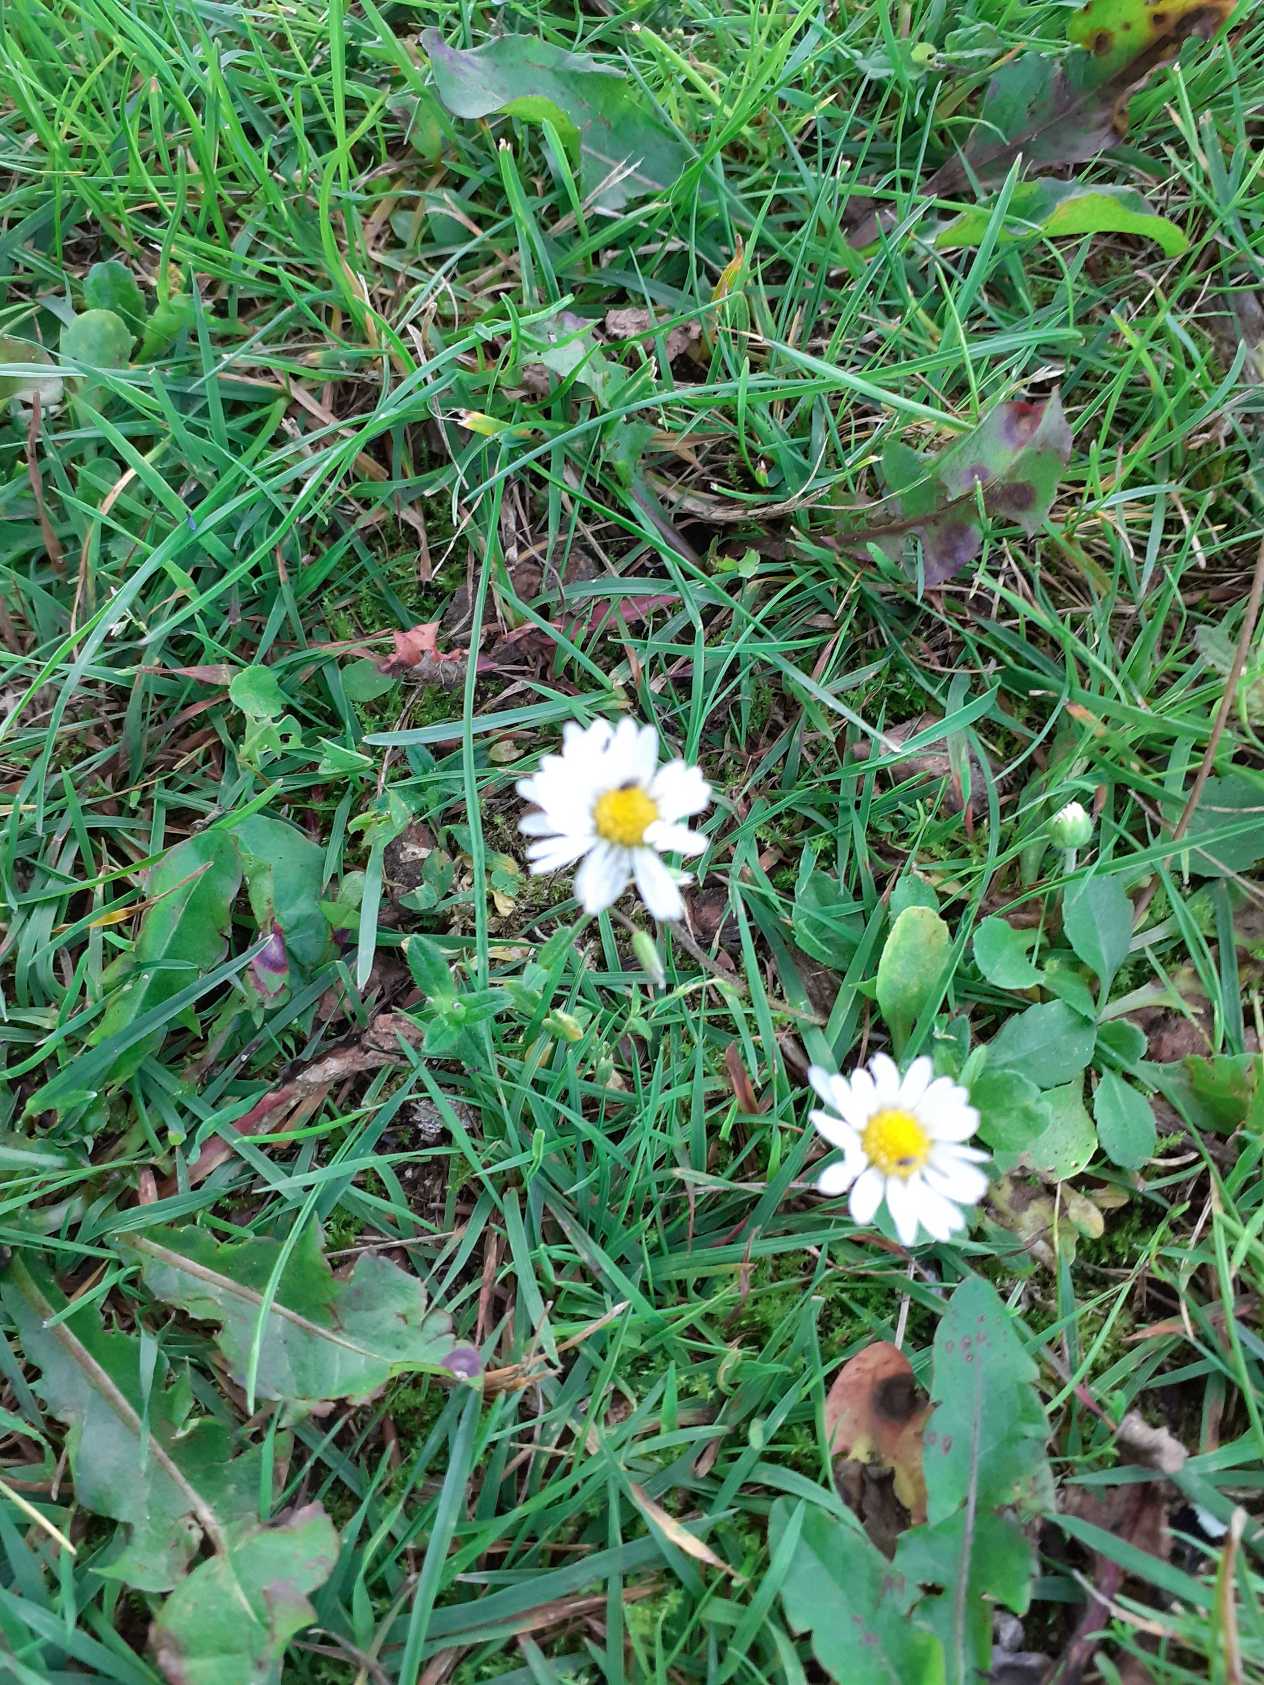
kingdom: Plantae
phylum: Tracheophyta
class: Magnoliopsida
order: Asterales
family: Asteraceae
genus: Bellis
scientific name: Bellis perennis
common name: Tusindfryd
